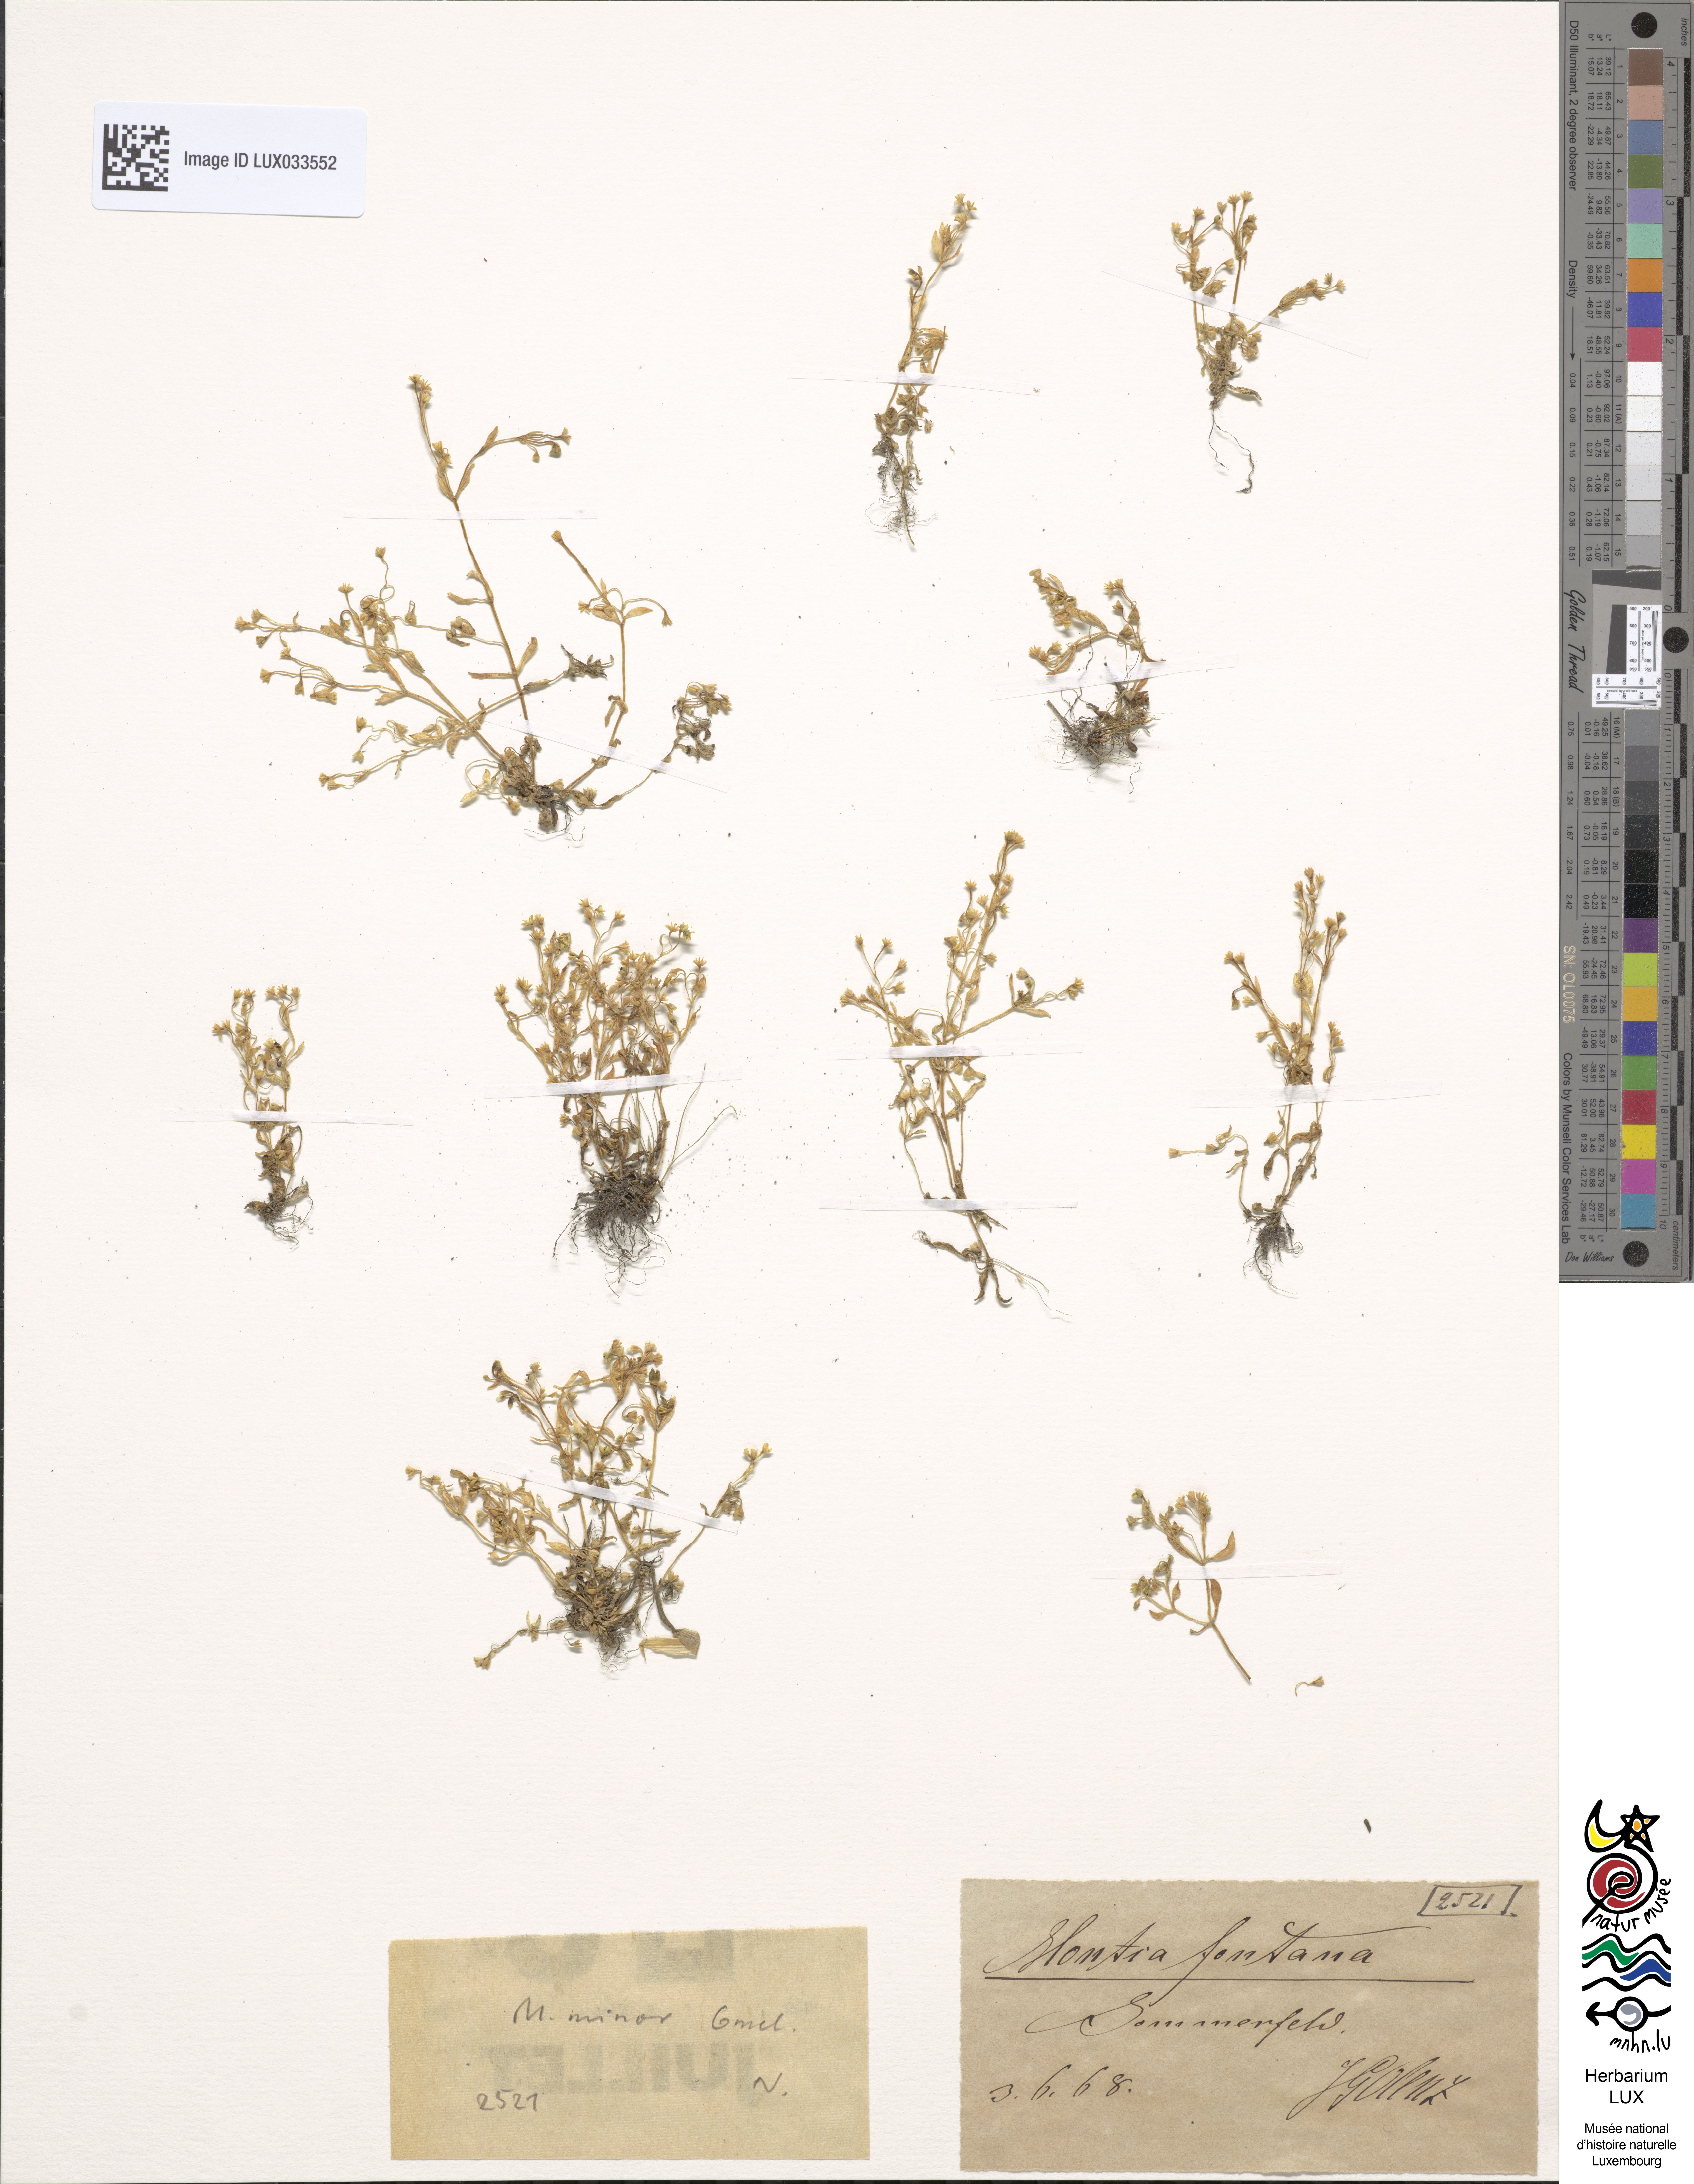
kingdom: Plantae
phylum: Tracheophyta
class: Magnoliopsida
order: Caryophyllales
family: Montiaceae
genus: Montia
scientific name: Montia arvensis
